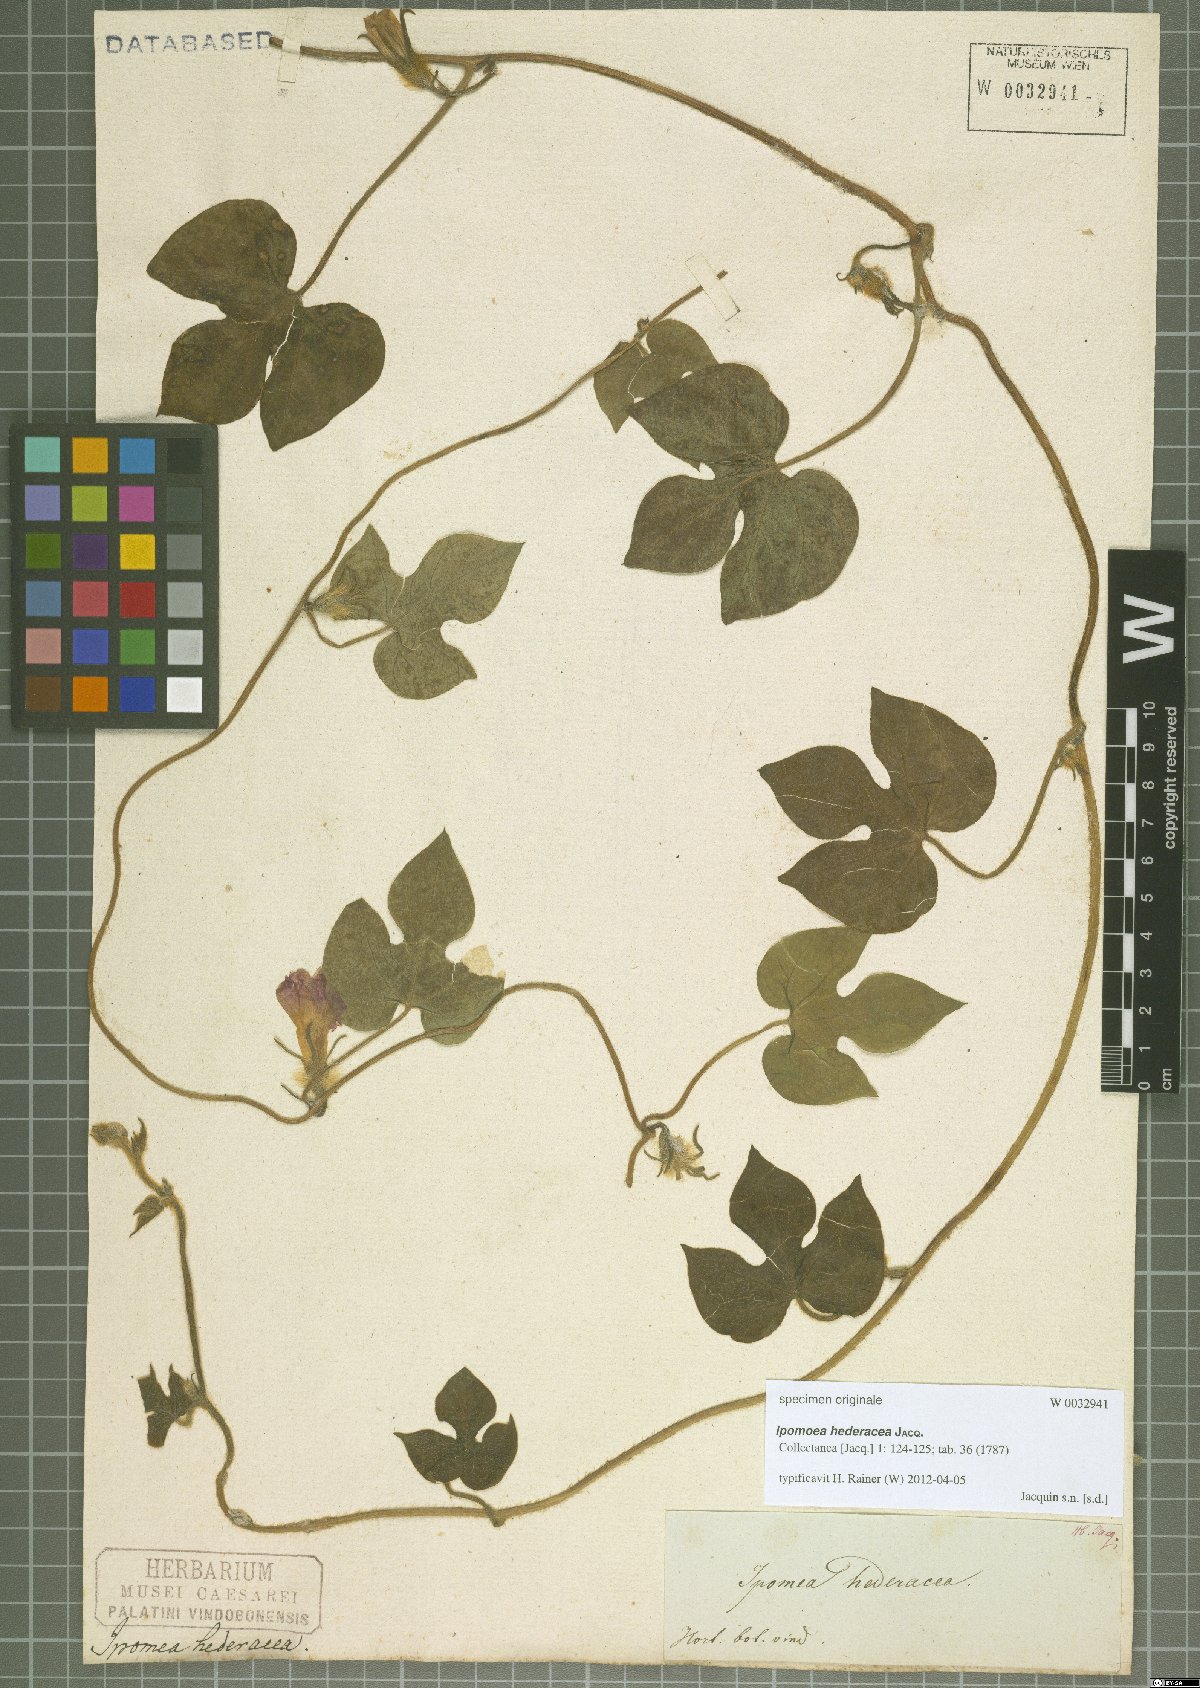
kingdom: Plantae
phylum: Tracheophyta
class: Magnoliopsida
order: Solanales
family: Convolvulaceae
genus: Ipomoea
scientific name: Ipomoea hederacea
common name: Ivy-leaved morning-glory
